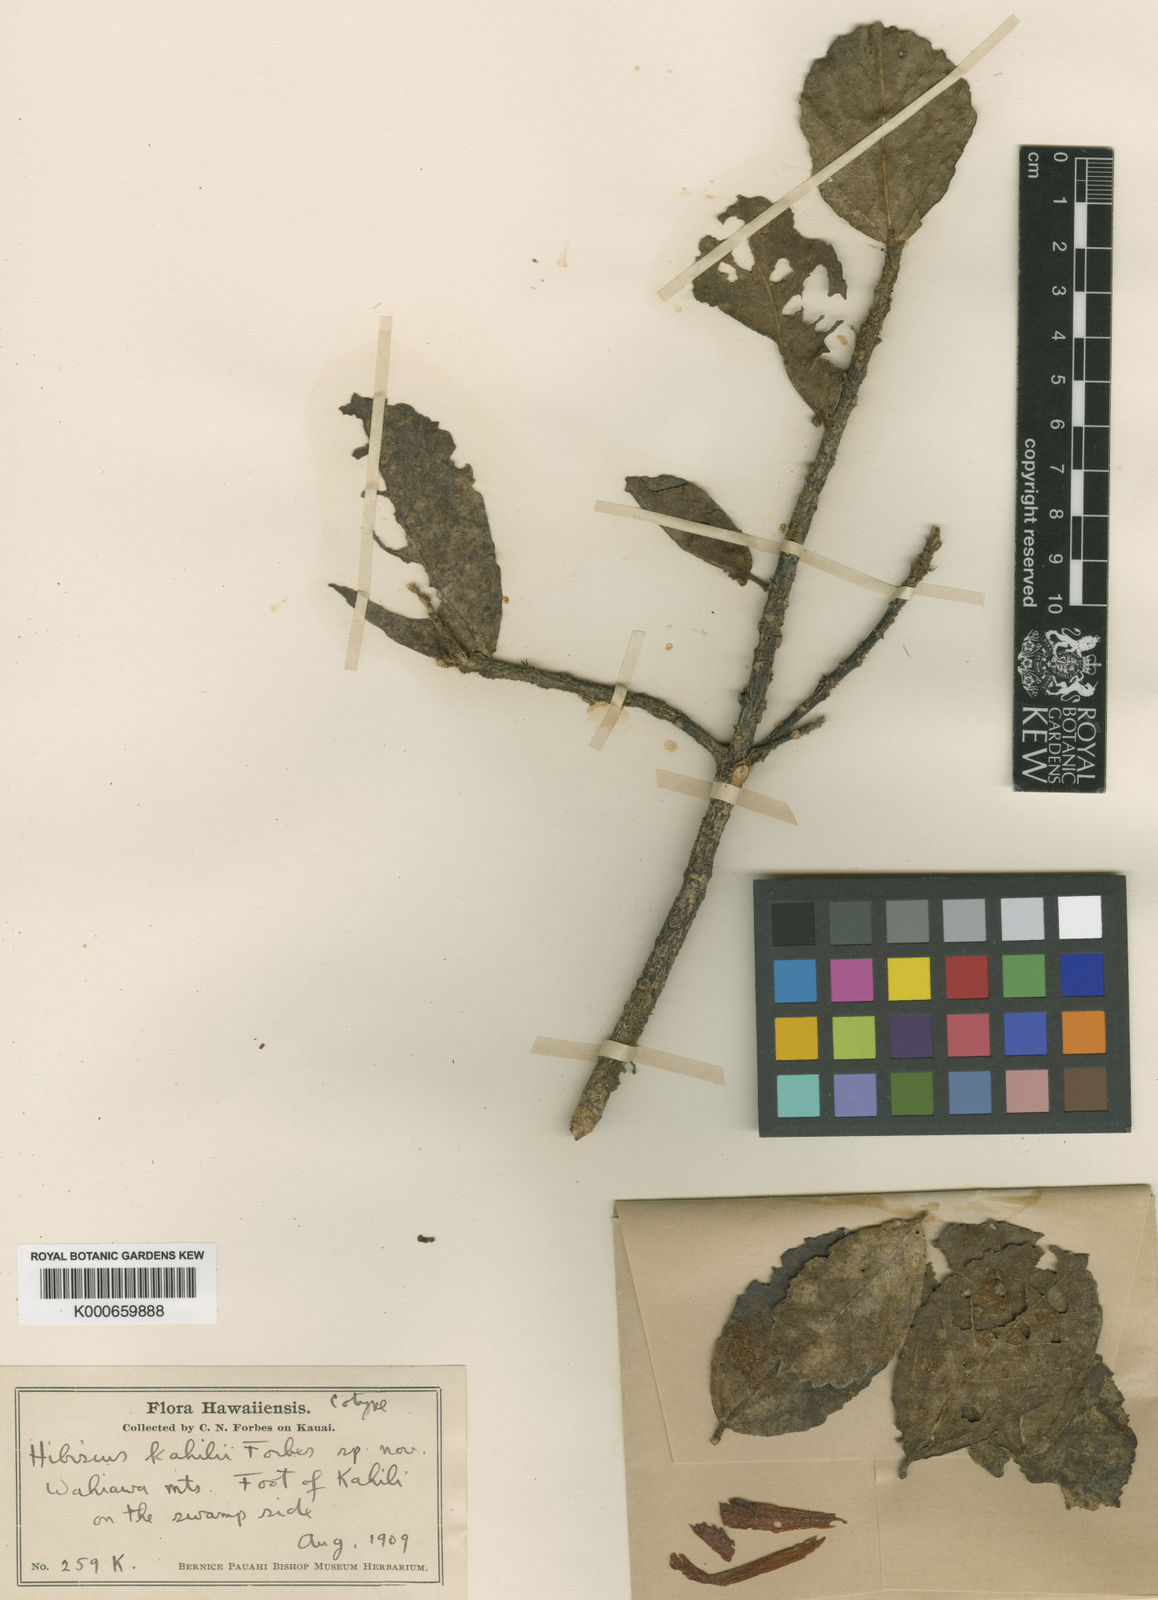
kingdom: Plantae
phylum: Tracheophyta
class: Magnoliopsida
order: Malvales
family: Malvaceae
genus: Hibiscus
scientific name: Hibiscus kokio
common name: Saint john's rosemallow
